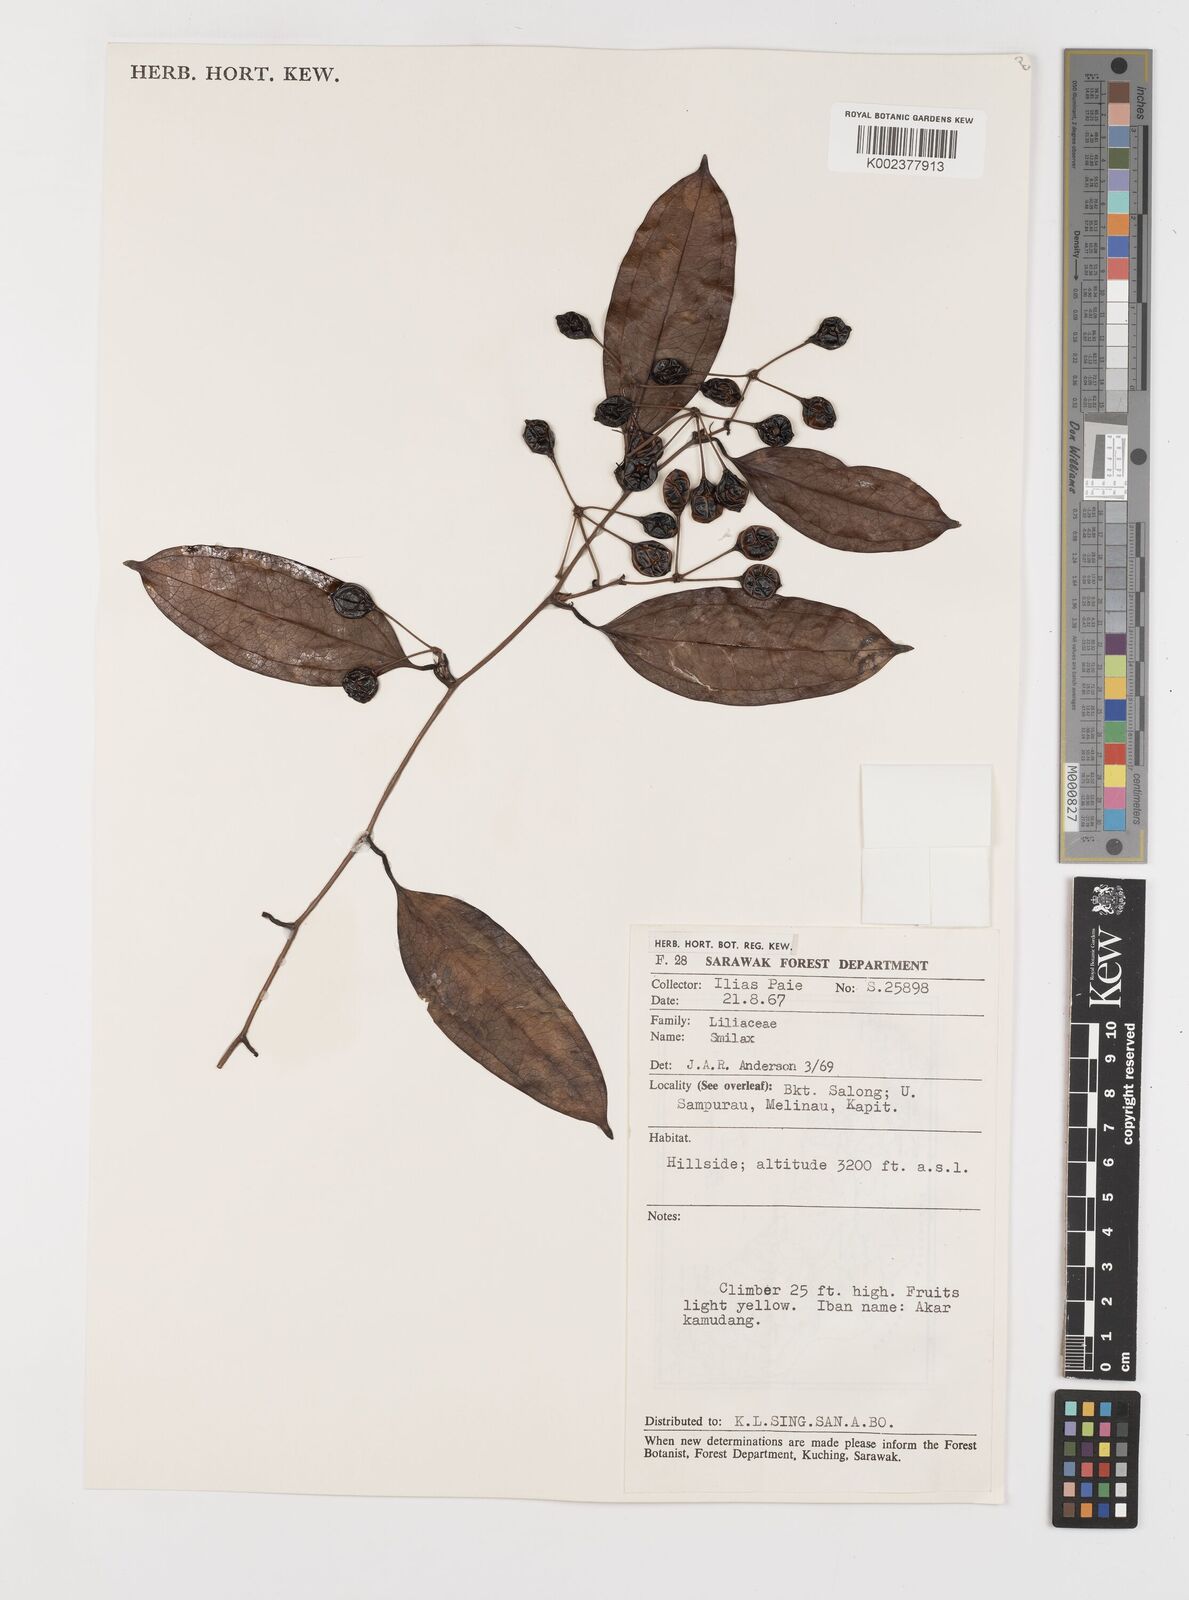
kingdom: Plantae
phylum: Tracheophyta
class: Liliopsida
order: Liliales
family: Smilacaceae
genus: Smilax
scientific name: Smilax
